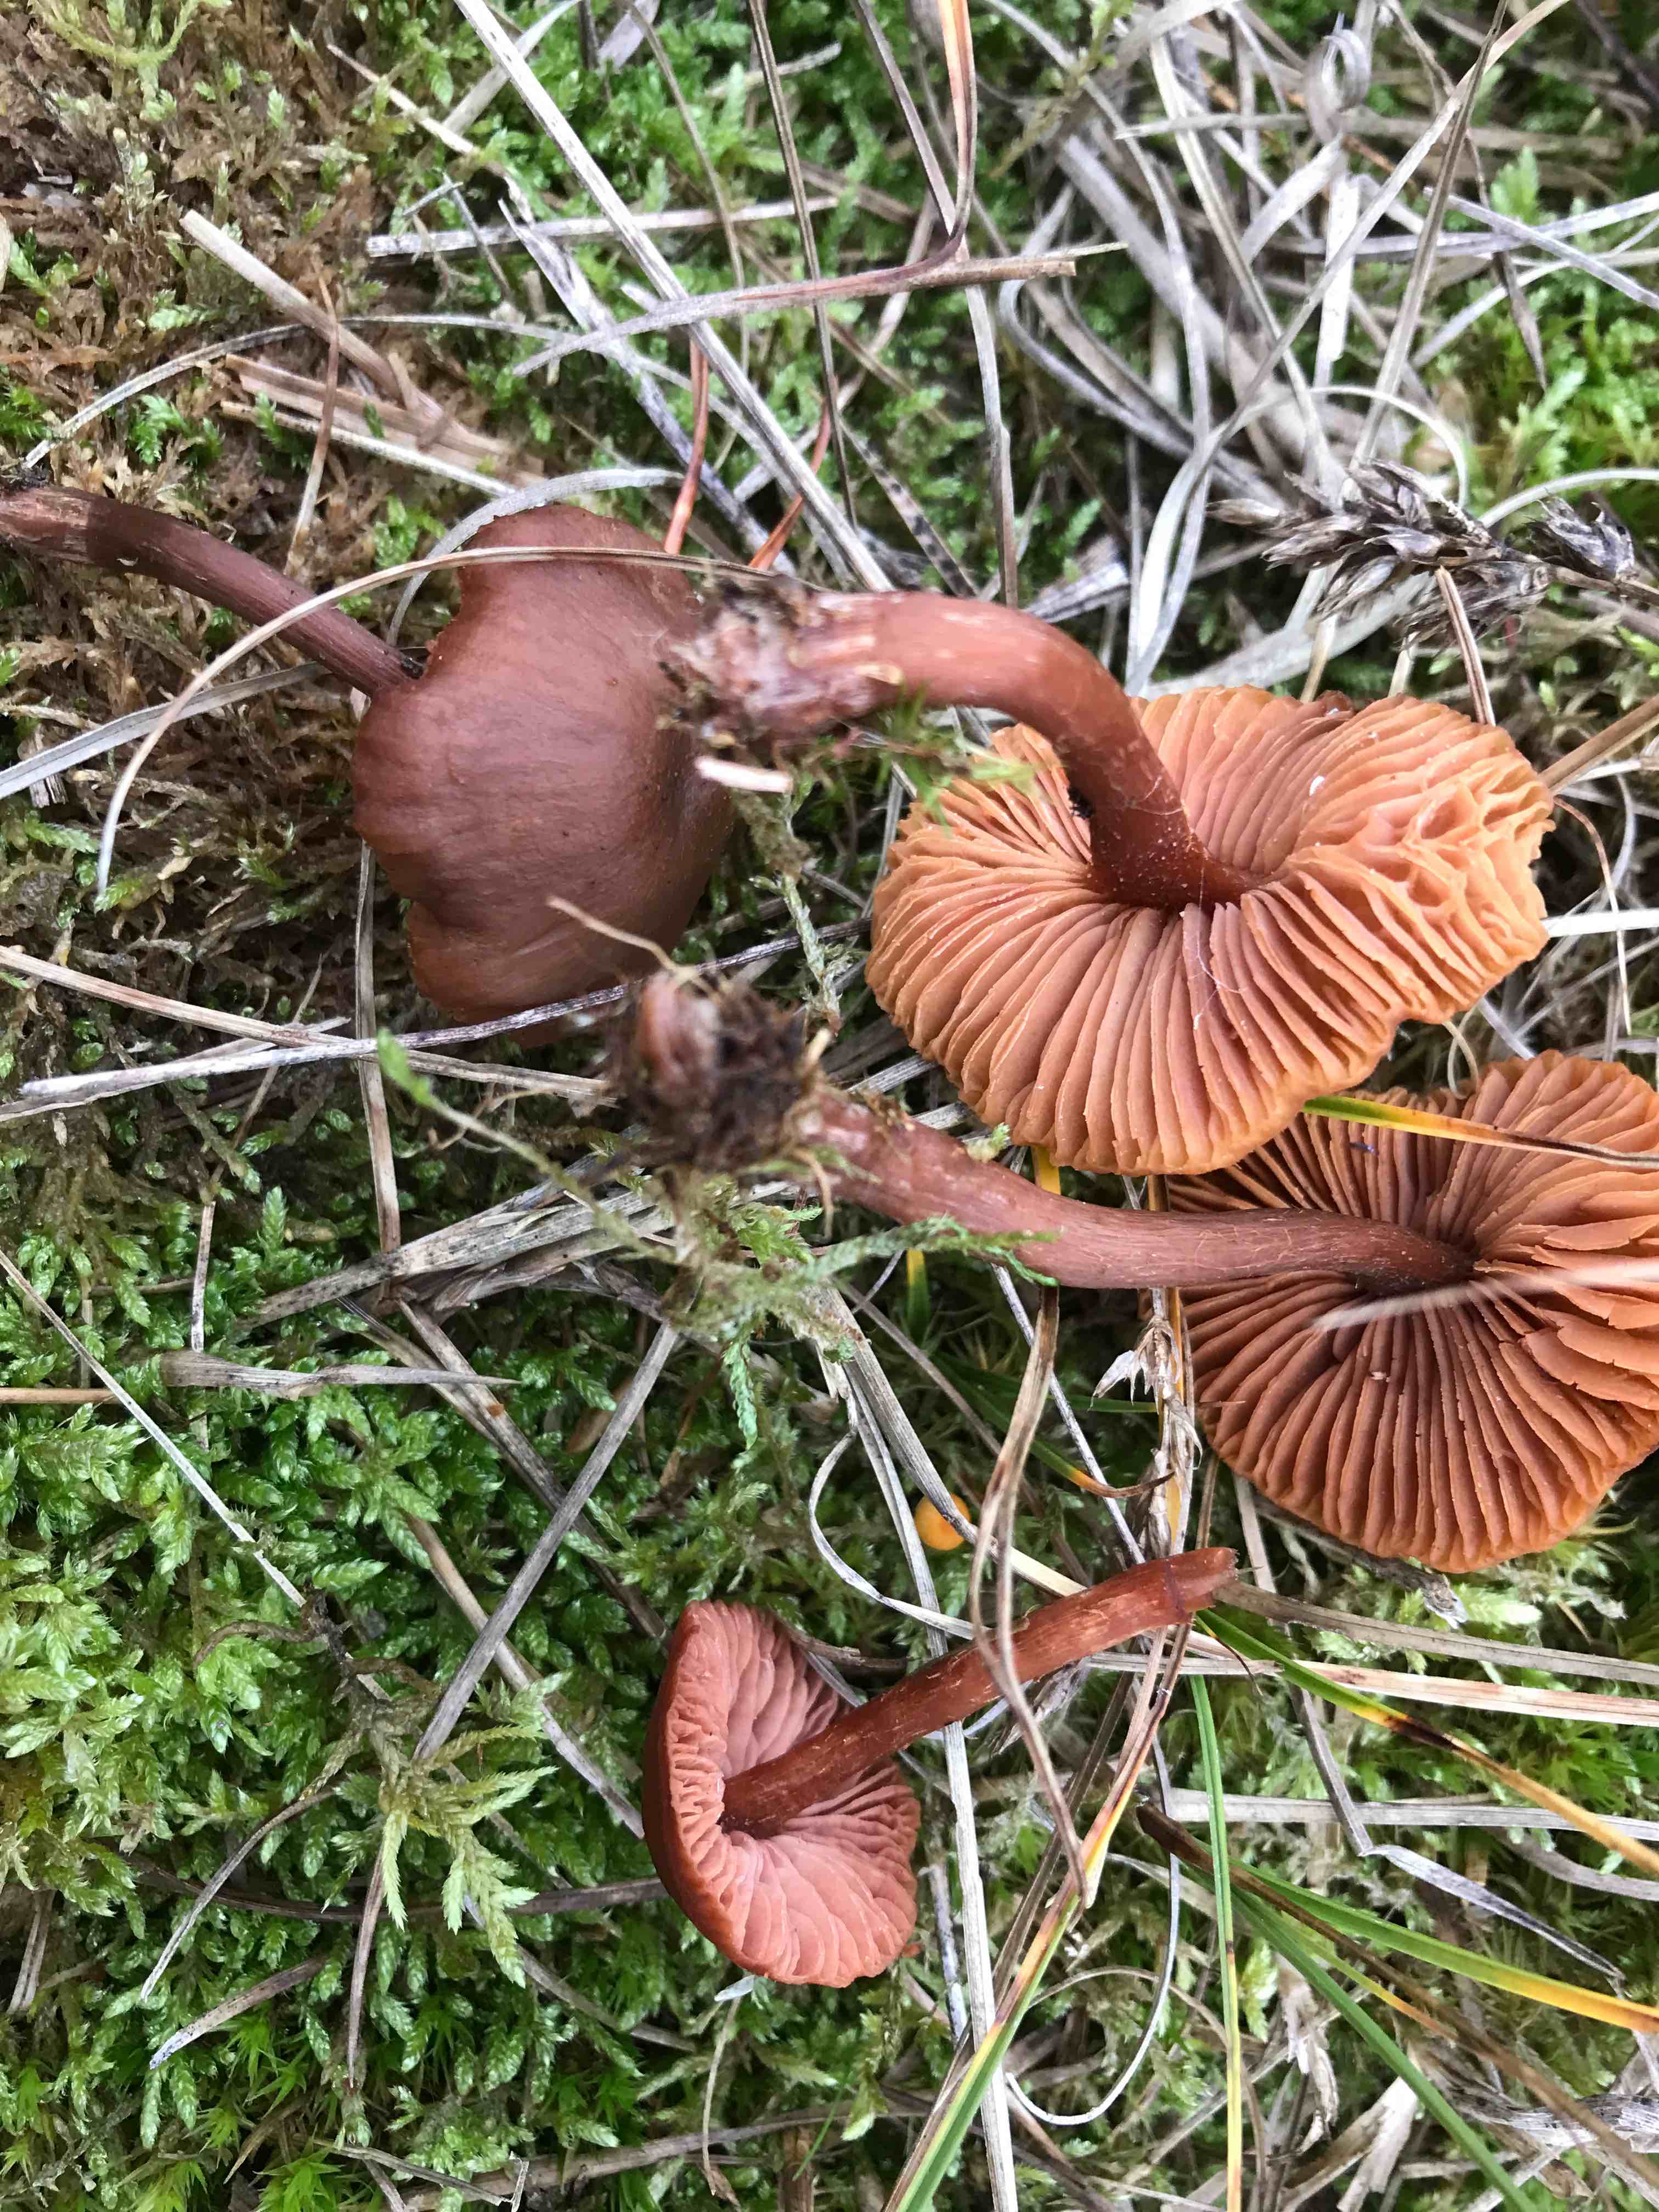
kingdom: Fungi
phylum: Basidiomycota
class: Agaricomycetes
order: Agaricales
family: Hydnangiaceae
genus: Laccaria
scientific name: Laccaria
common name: ametysthat
